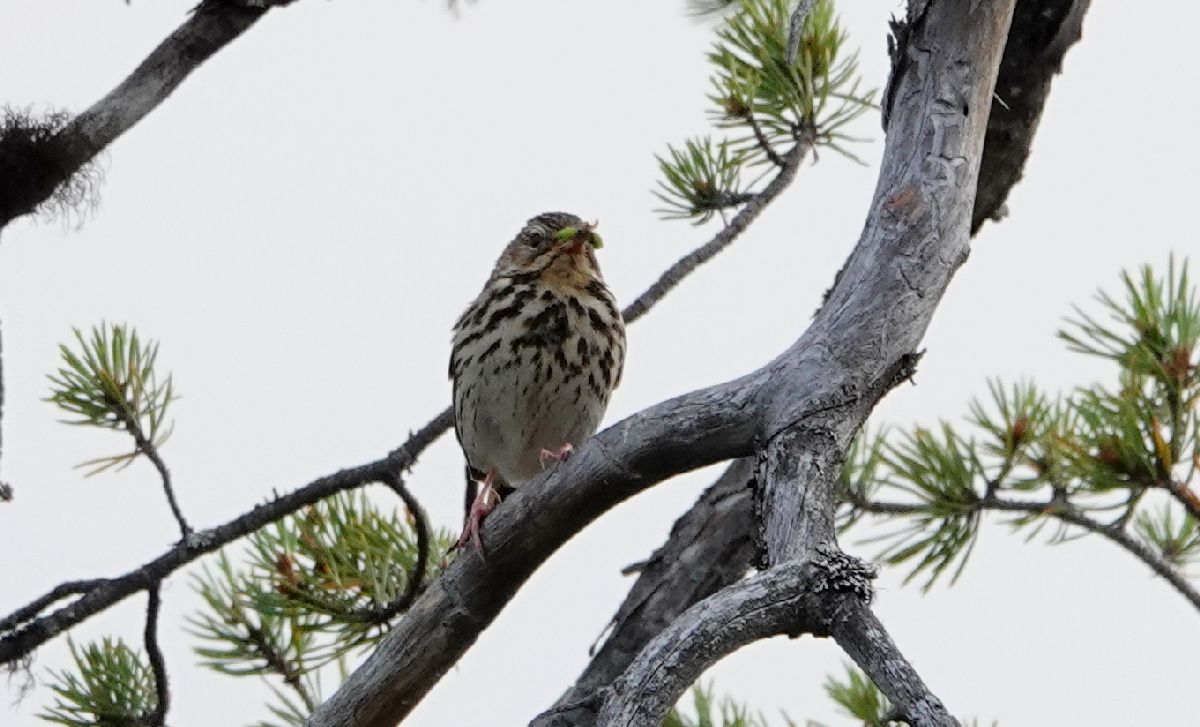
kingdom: Animalia
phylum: Chordata
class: Aves
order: Passeriformes
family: Motacillidae
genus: Anthus
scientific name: Anthus cervinus
